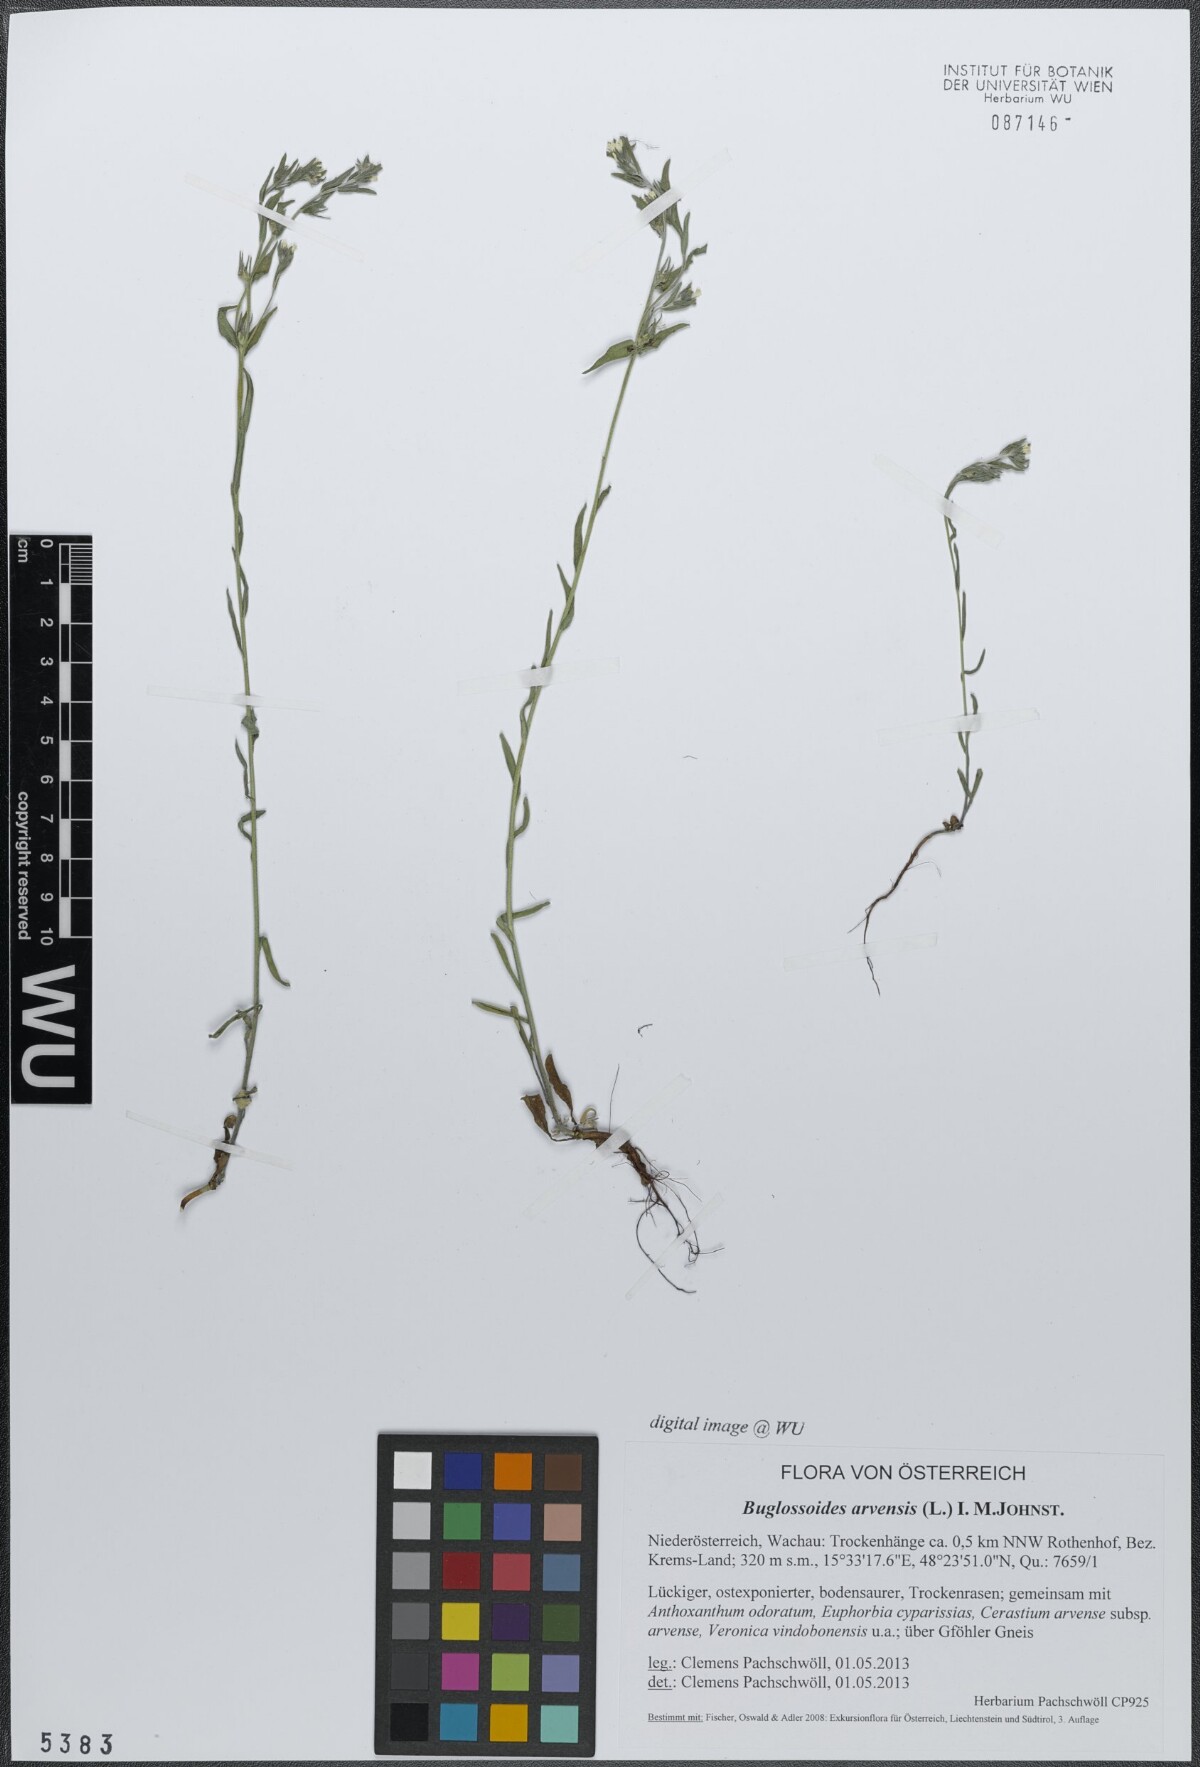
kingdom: Plantae
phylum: Tracheophyta
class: Magnoliopsida
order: Boraginales
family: Boraginaceae
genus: Buglossoides
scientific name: Buglossoides arvensis
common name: Corn gromwell
